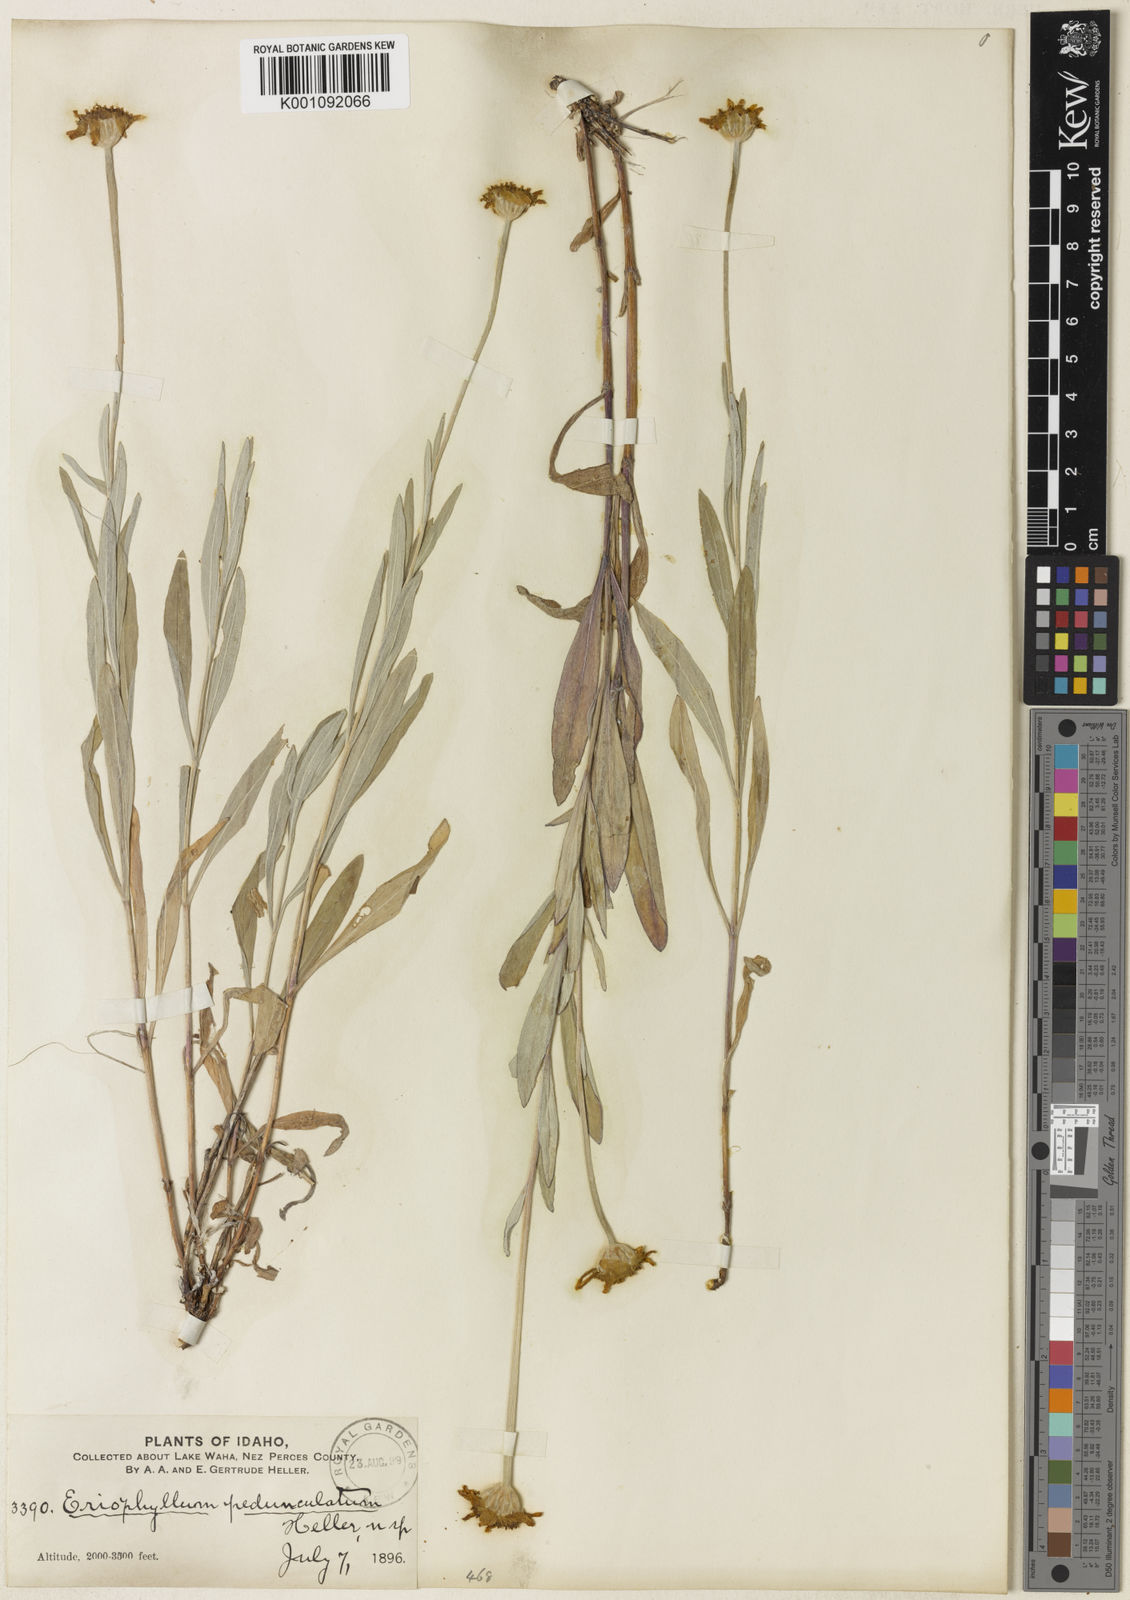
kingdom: Plantae
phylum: Tracheophyta
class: Magnoliopsida
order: Asterales
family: Asteraceae
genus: Eriophyllum
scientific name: Eriophyllum lanatum
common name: Common woolly-sunflower
